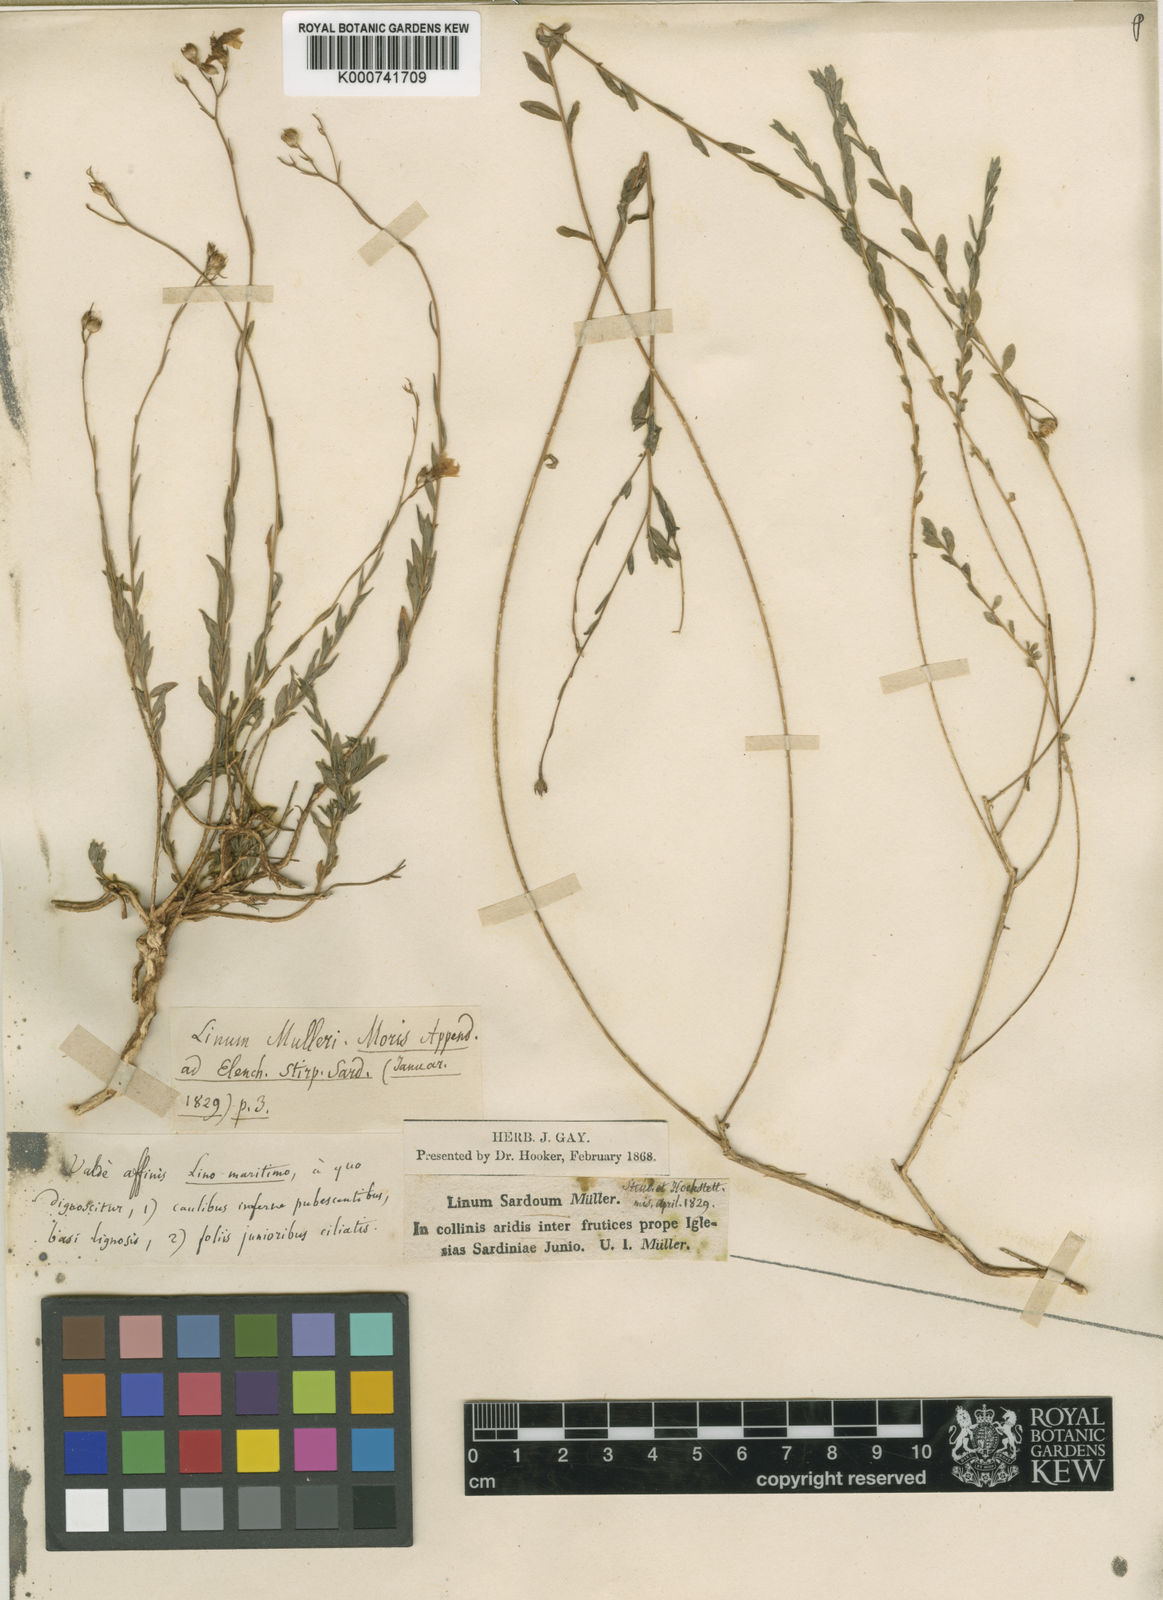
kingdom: Plantae
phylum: Tracheophyta
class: Magnoliopsida
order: Malpighiales
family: Linaceae
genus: Linum
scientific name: Linum maritimum
